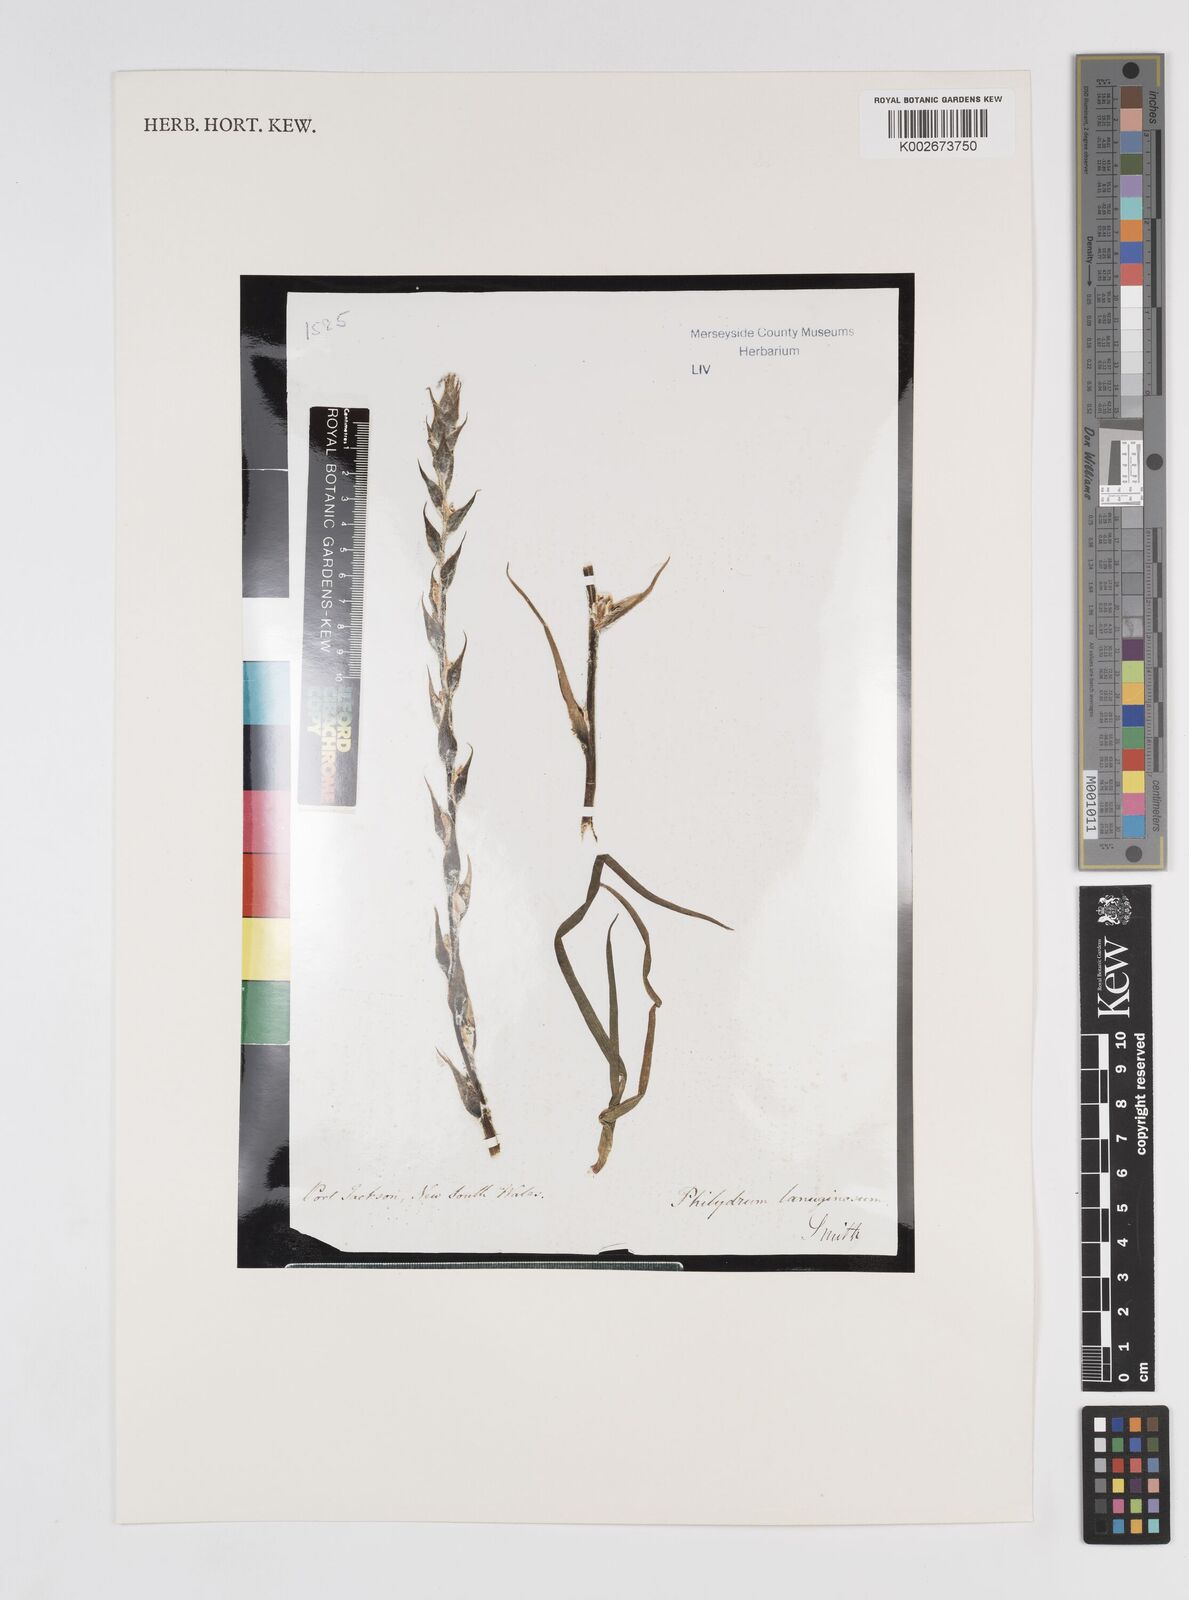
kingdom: Plantae
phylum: Tracheophyta
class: Liliopsida
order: Commelinales
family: Philydraceae
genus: Philydrum
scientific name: Philydrum lanuginosum
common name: Woolly frog's mouth
